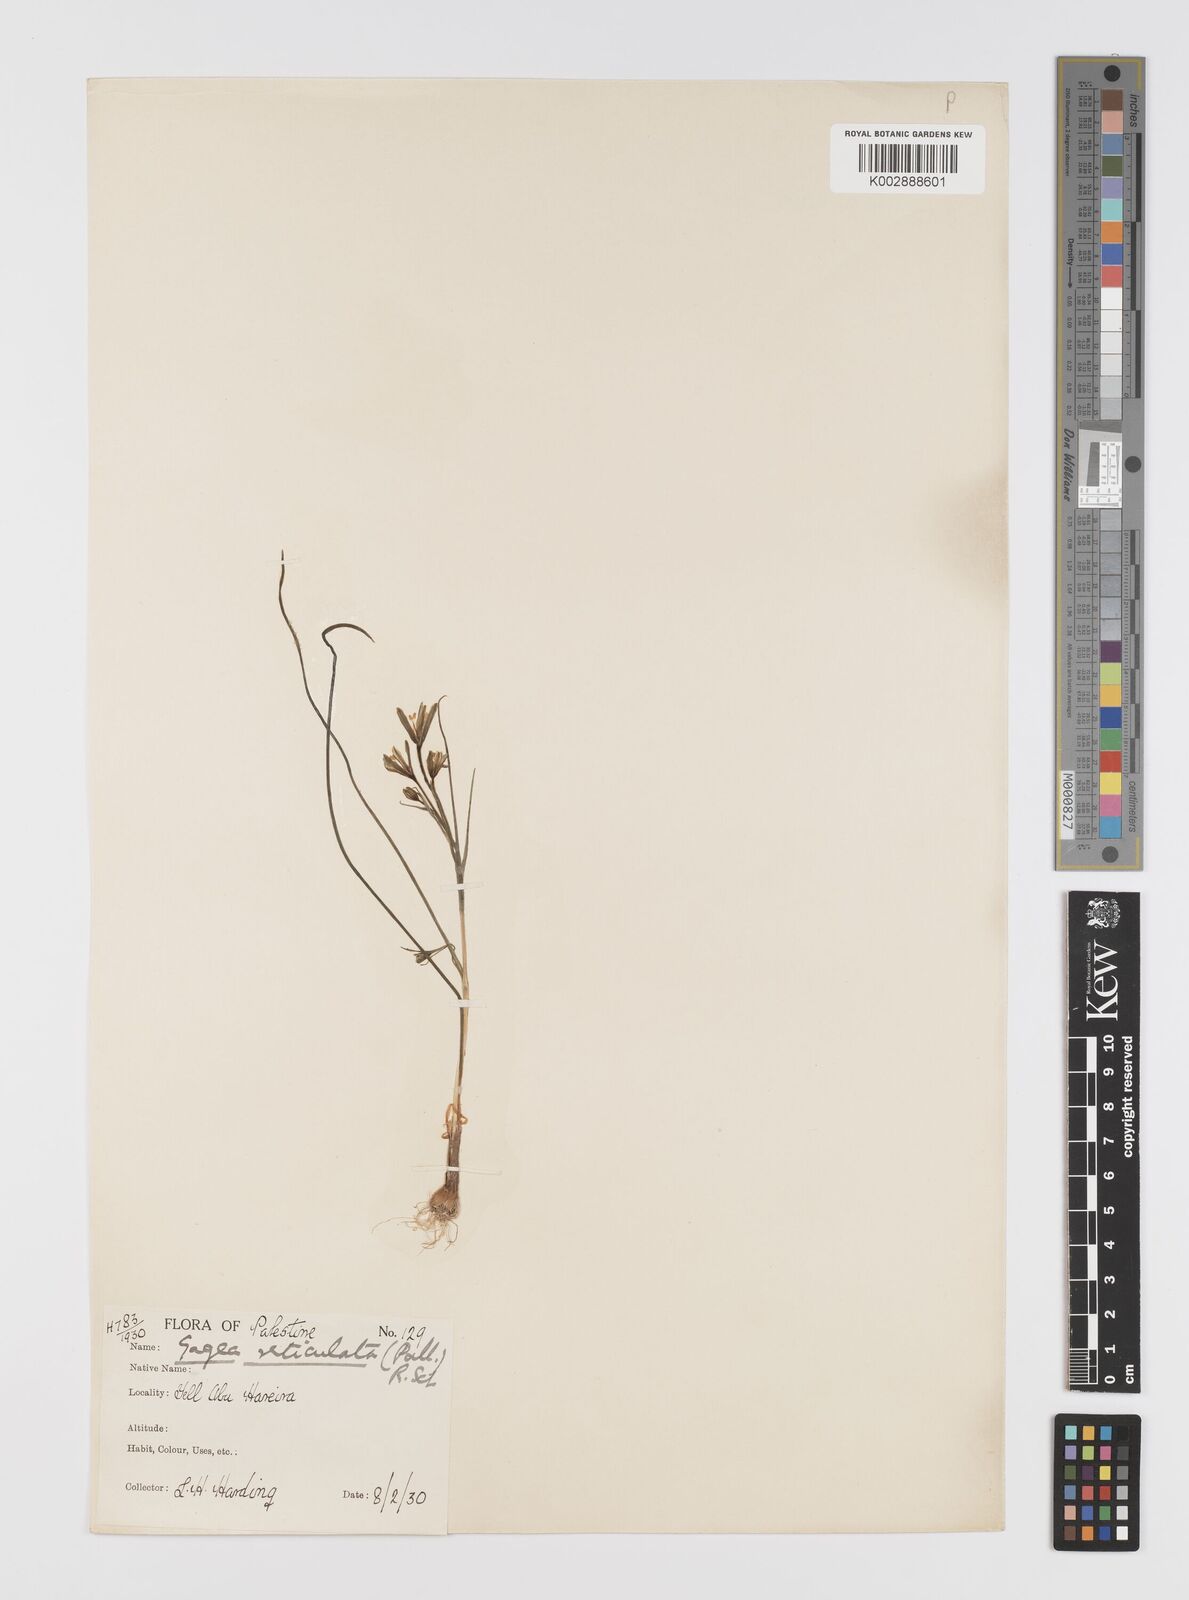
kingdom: Plantae
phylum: Tracheophyta
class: Liliopsida
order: Liliales
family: Liliaceae
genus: Gagea
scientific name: Gagea chlorantha
